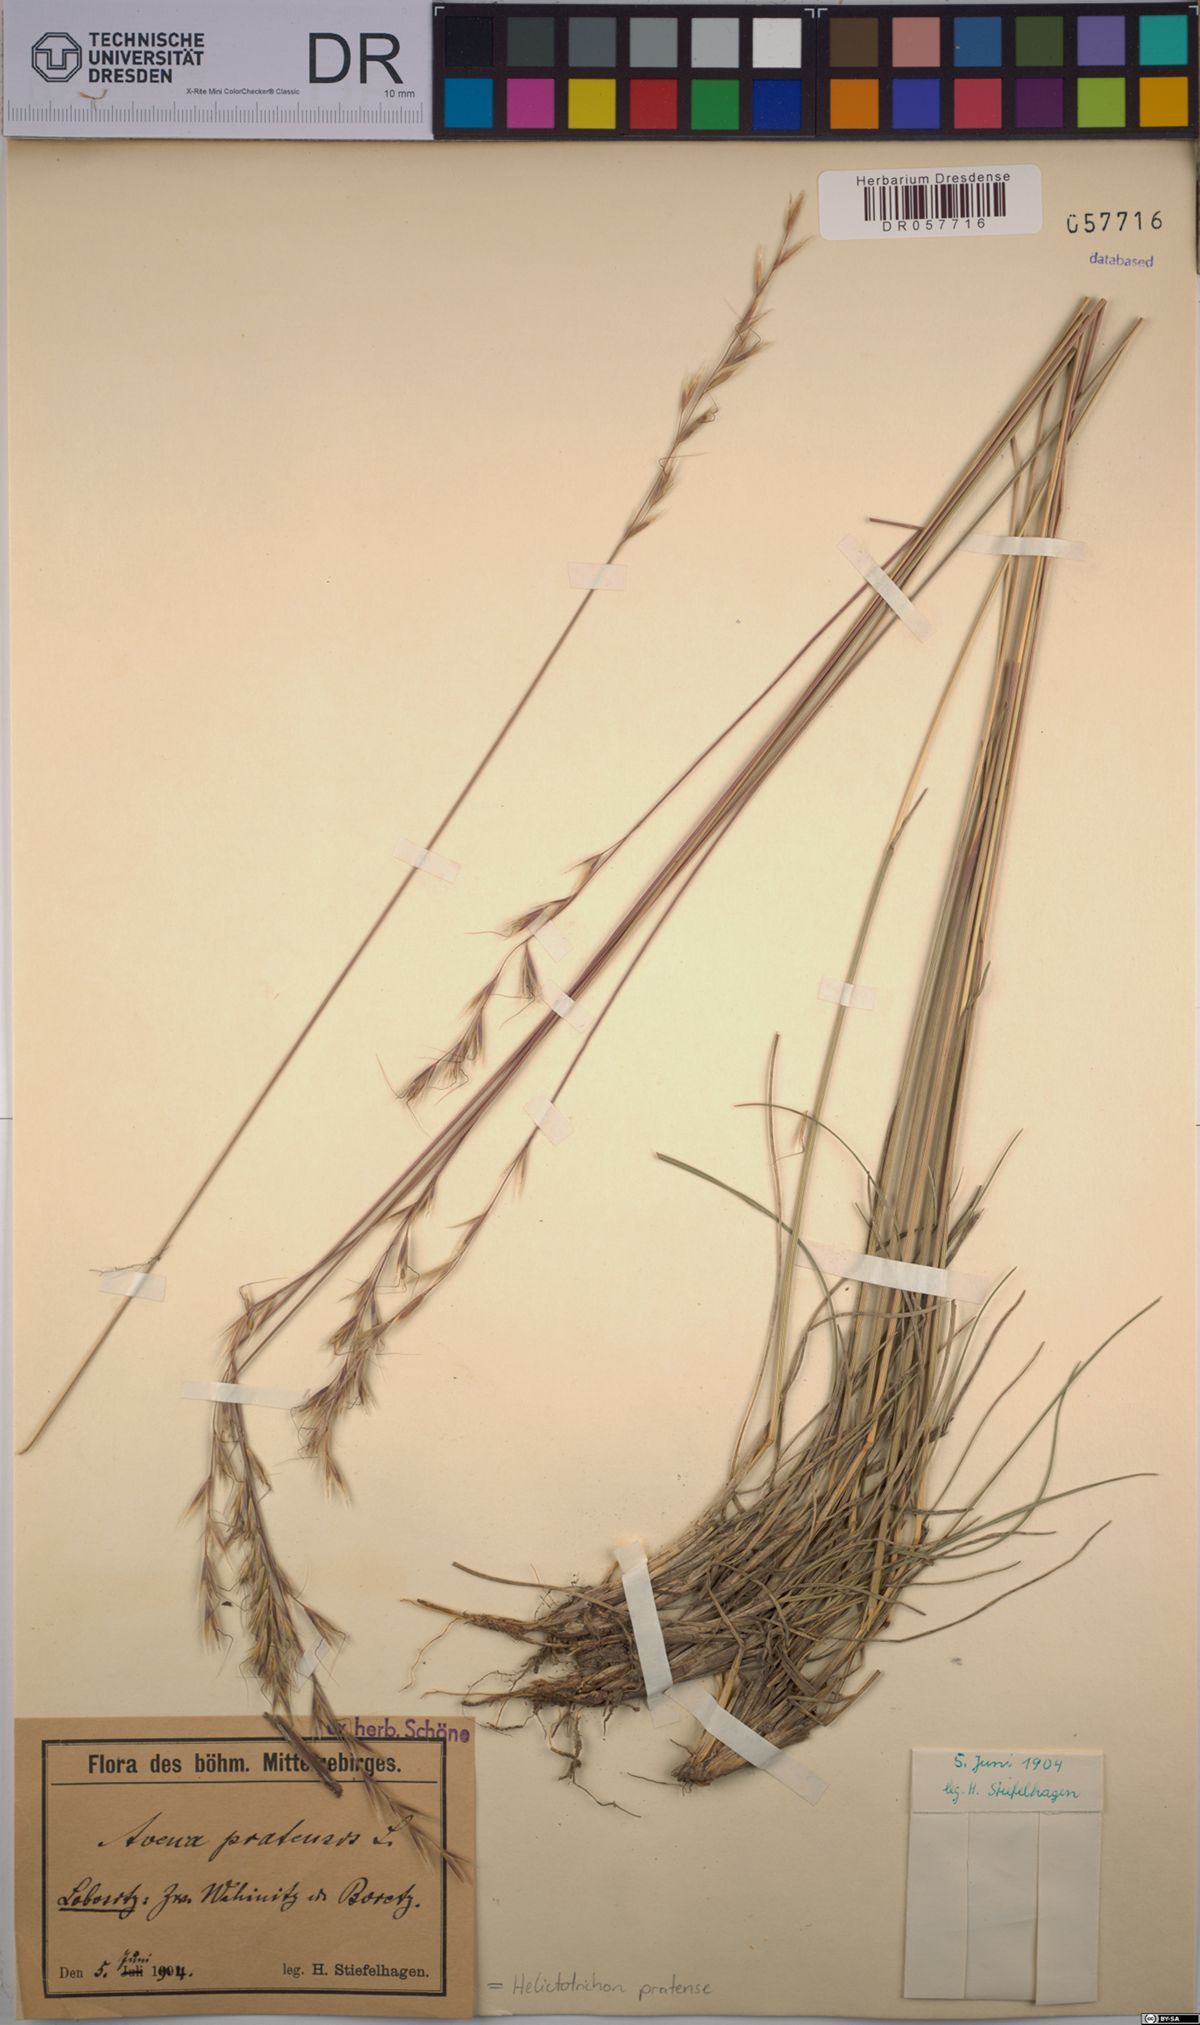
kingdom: Plantae
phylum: Tracheophyta
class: Liliopsida
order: Poales
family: Poaceae
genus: Helictochloa
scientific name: Helictochloa pratensis
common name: Meadow oat grass
